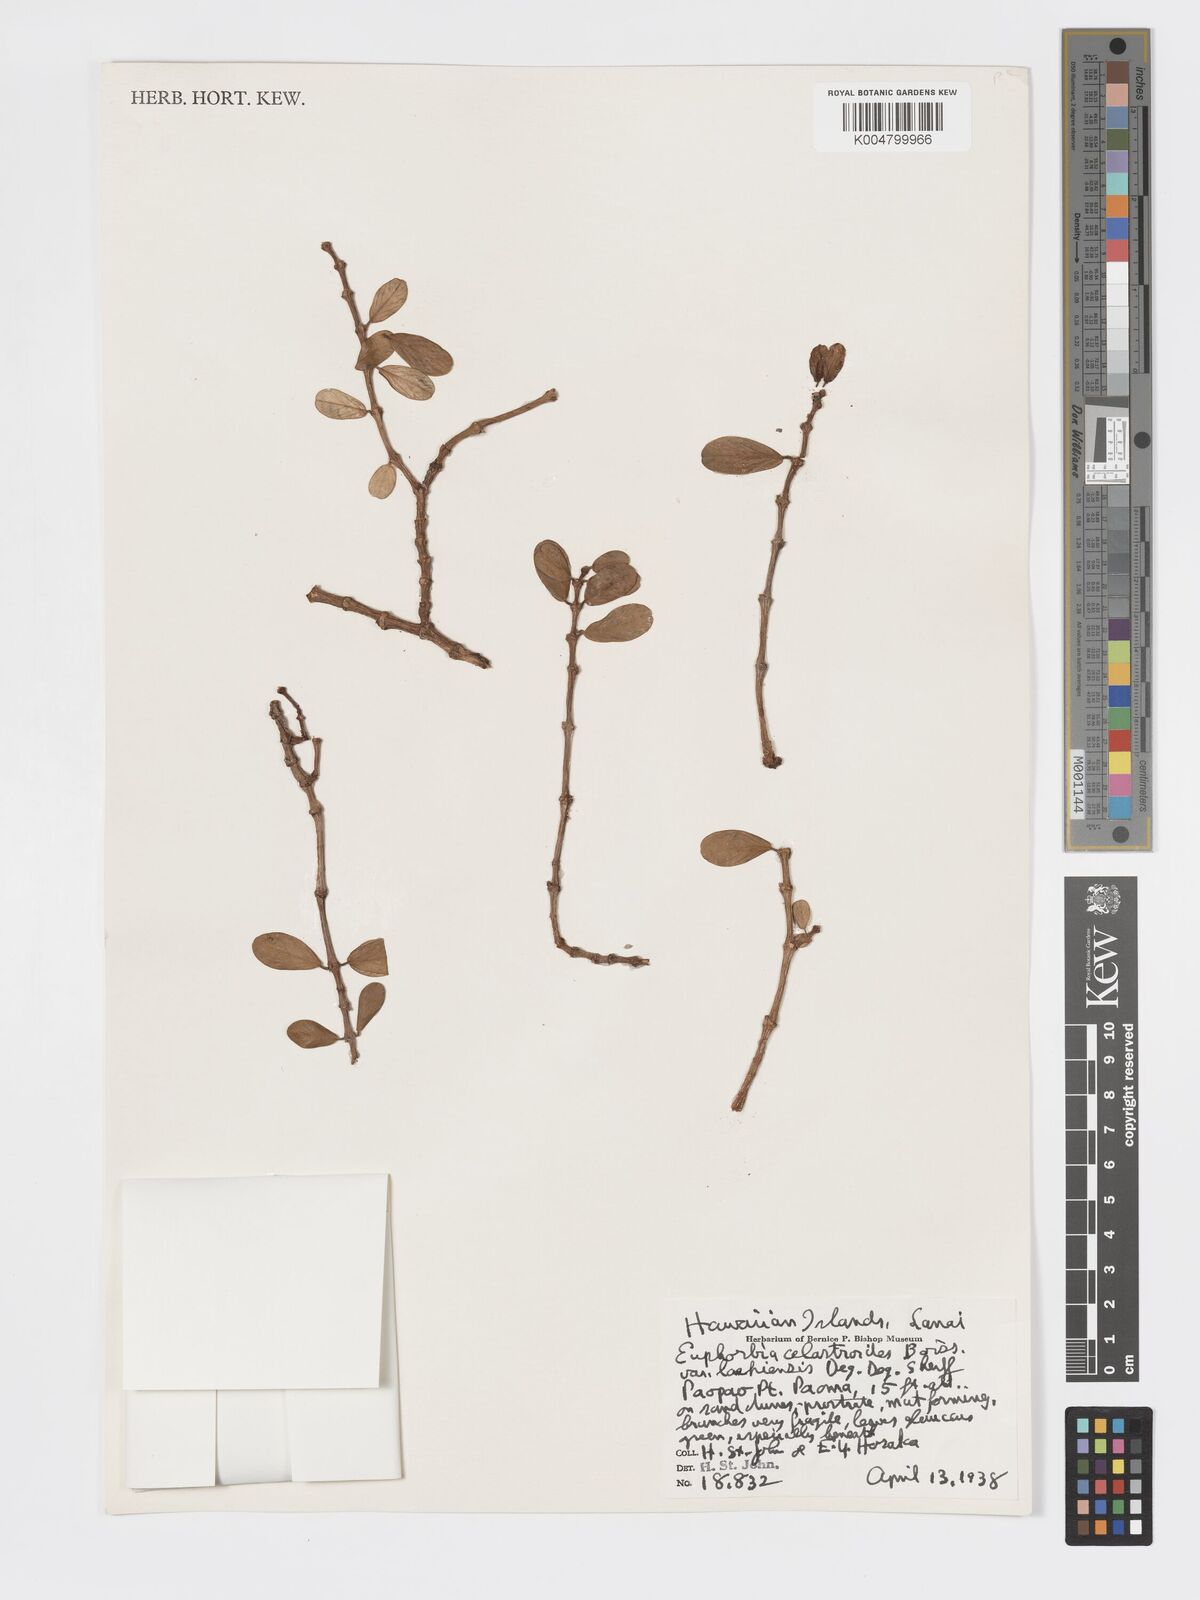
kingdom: Plantae
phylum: Tracheophyta
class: Magnoliopsida
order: Malpighiales
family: Euphorbiaceae
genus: Euphorbia
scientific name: Euphorbia celastroides
